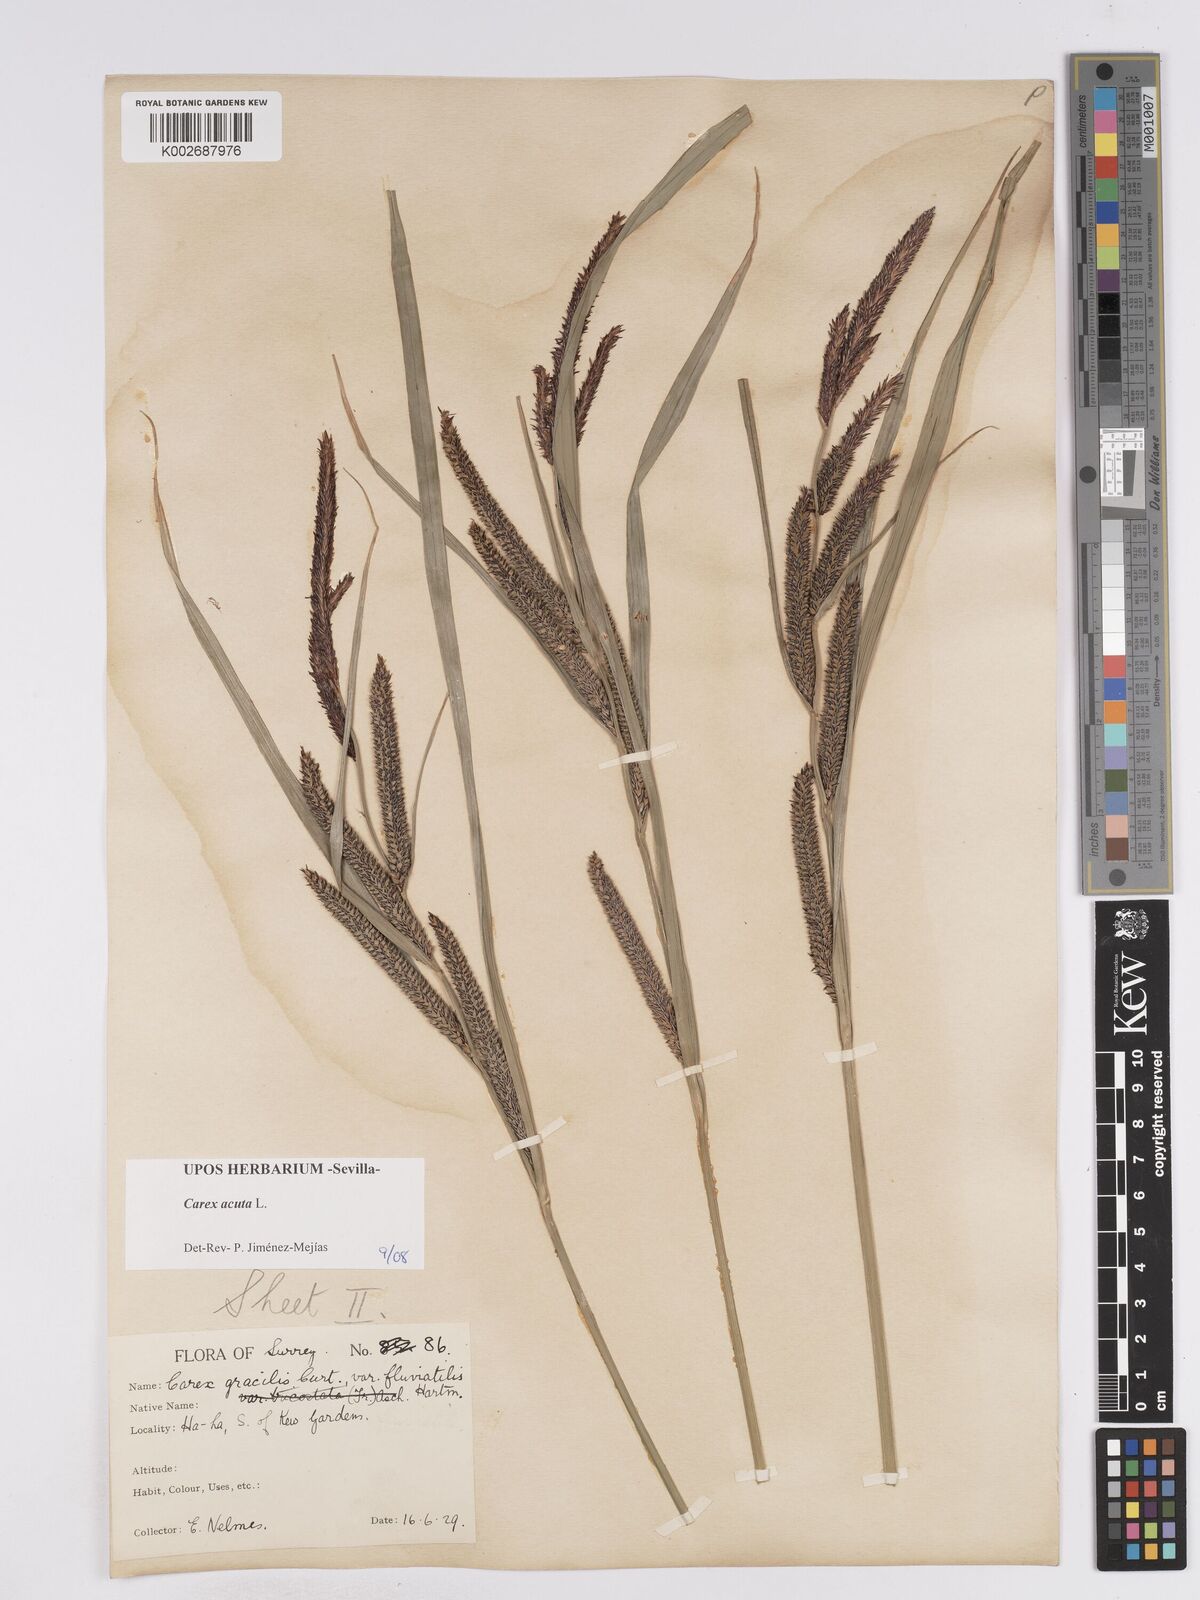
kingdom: Plantae
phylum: Tracheophyta
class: Liliopsida
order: Poales
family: Cyperaceae
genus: Carex
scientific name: Carex acuta
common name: Slender tufted-sedge
